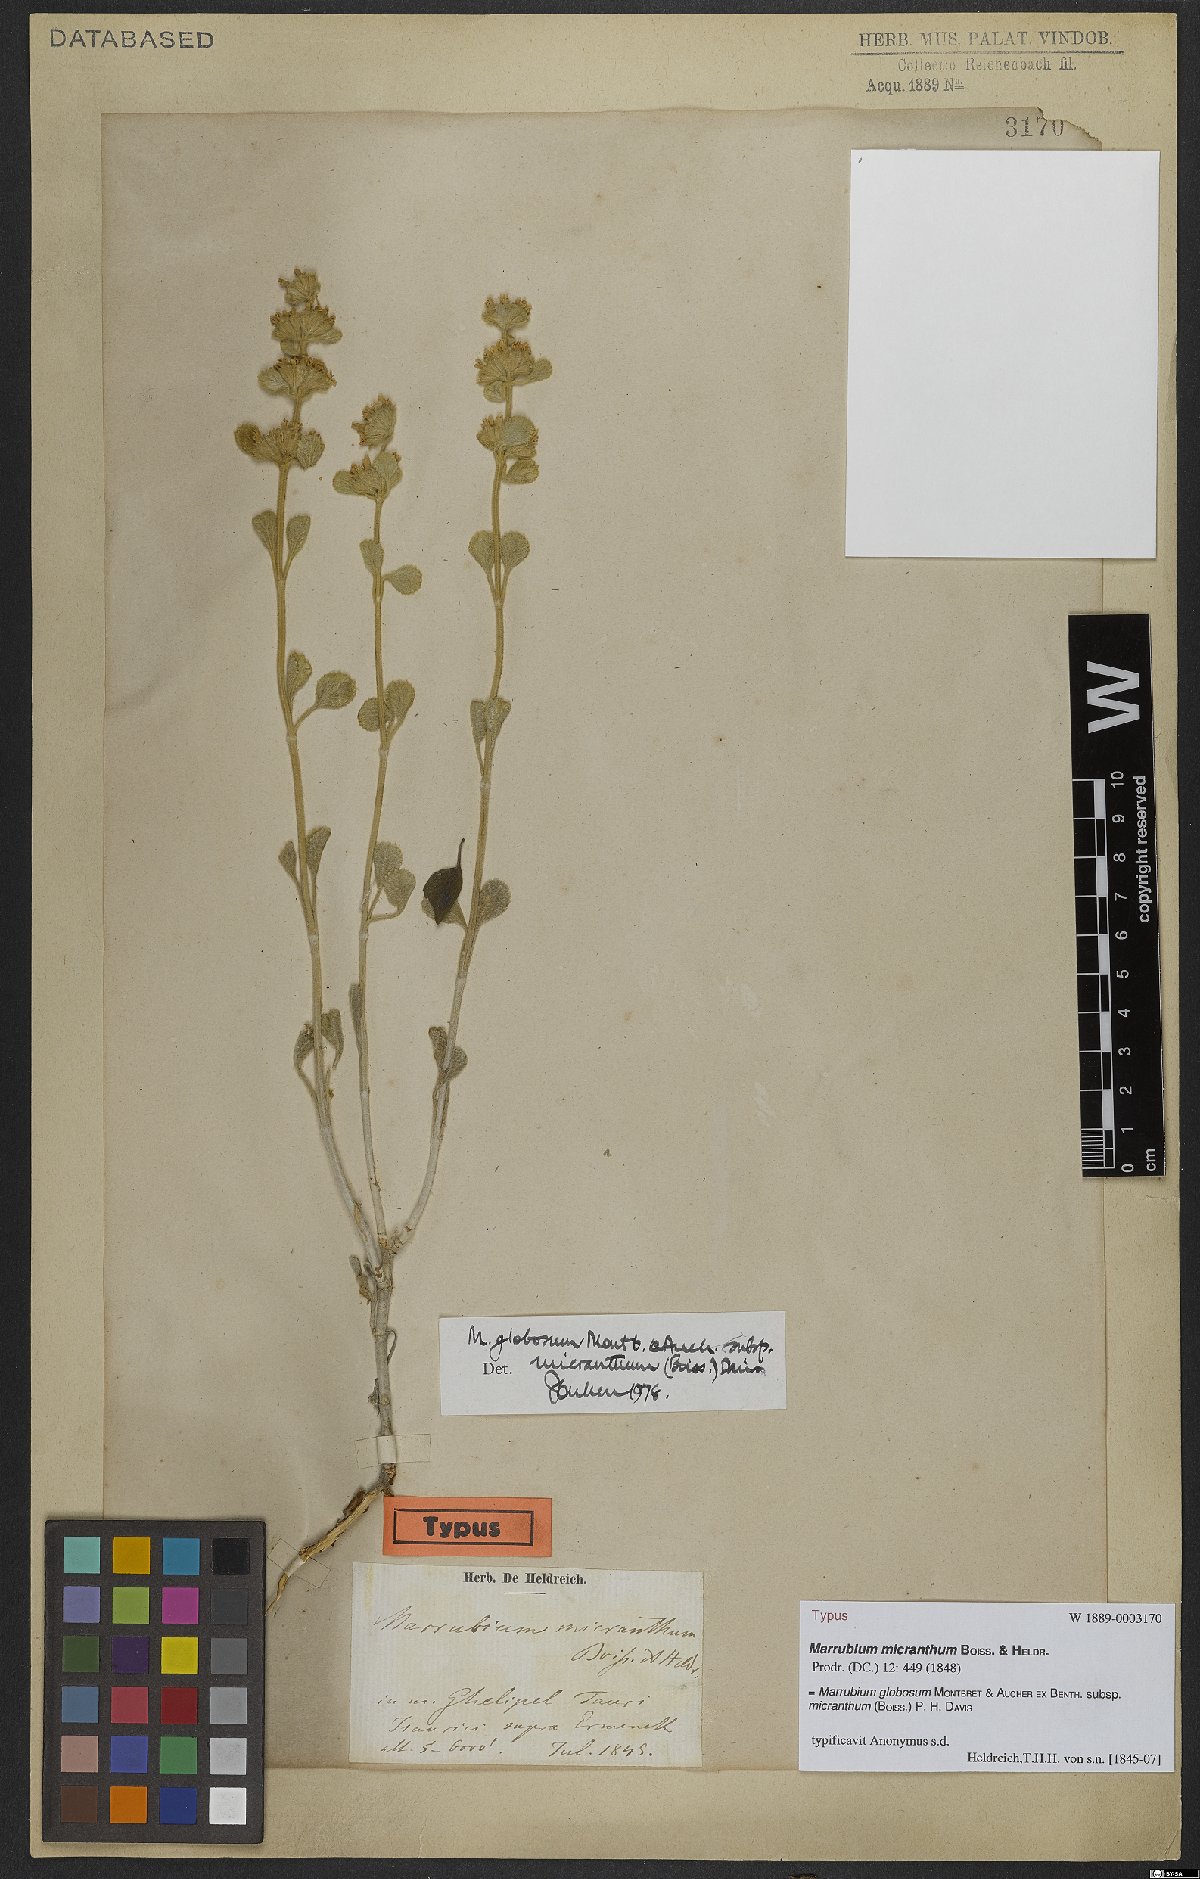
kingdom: Plantae
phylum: Tracheophyta
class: Magnoliopsida
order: Lamiales
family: Lamiaceae
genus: Marrubium
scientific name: Marrubium globosum
